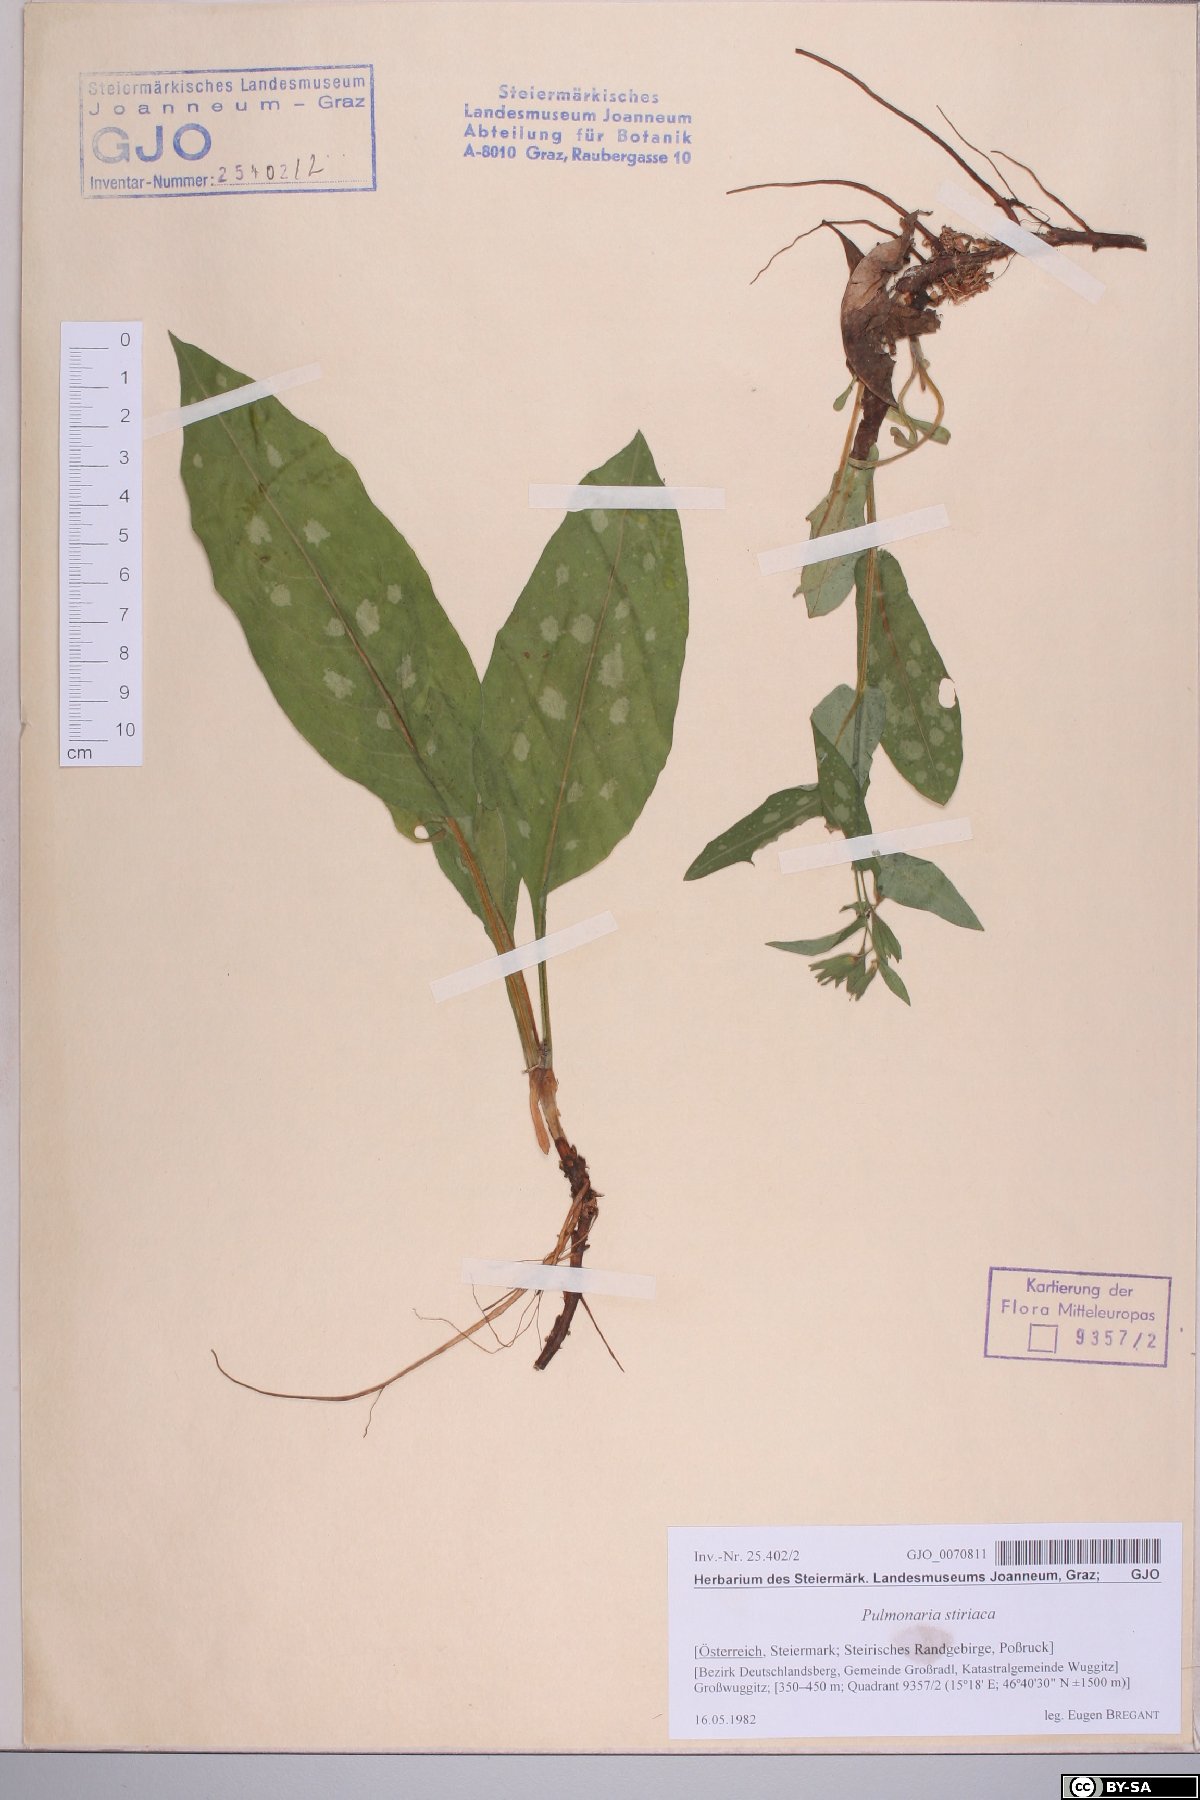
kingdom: Plantae
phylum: Tracheophyta
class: Magnoliopsida
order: Boraginales
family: Boraginaceae
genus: Pulmonaria
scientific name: Pulmonaria stiriaca
